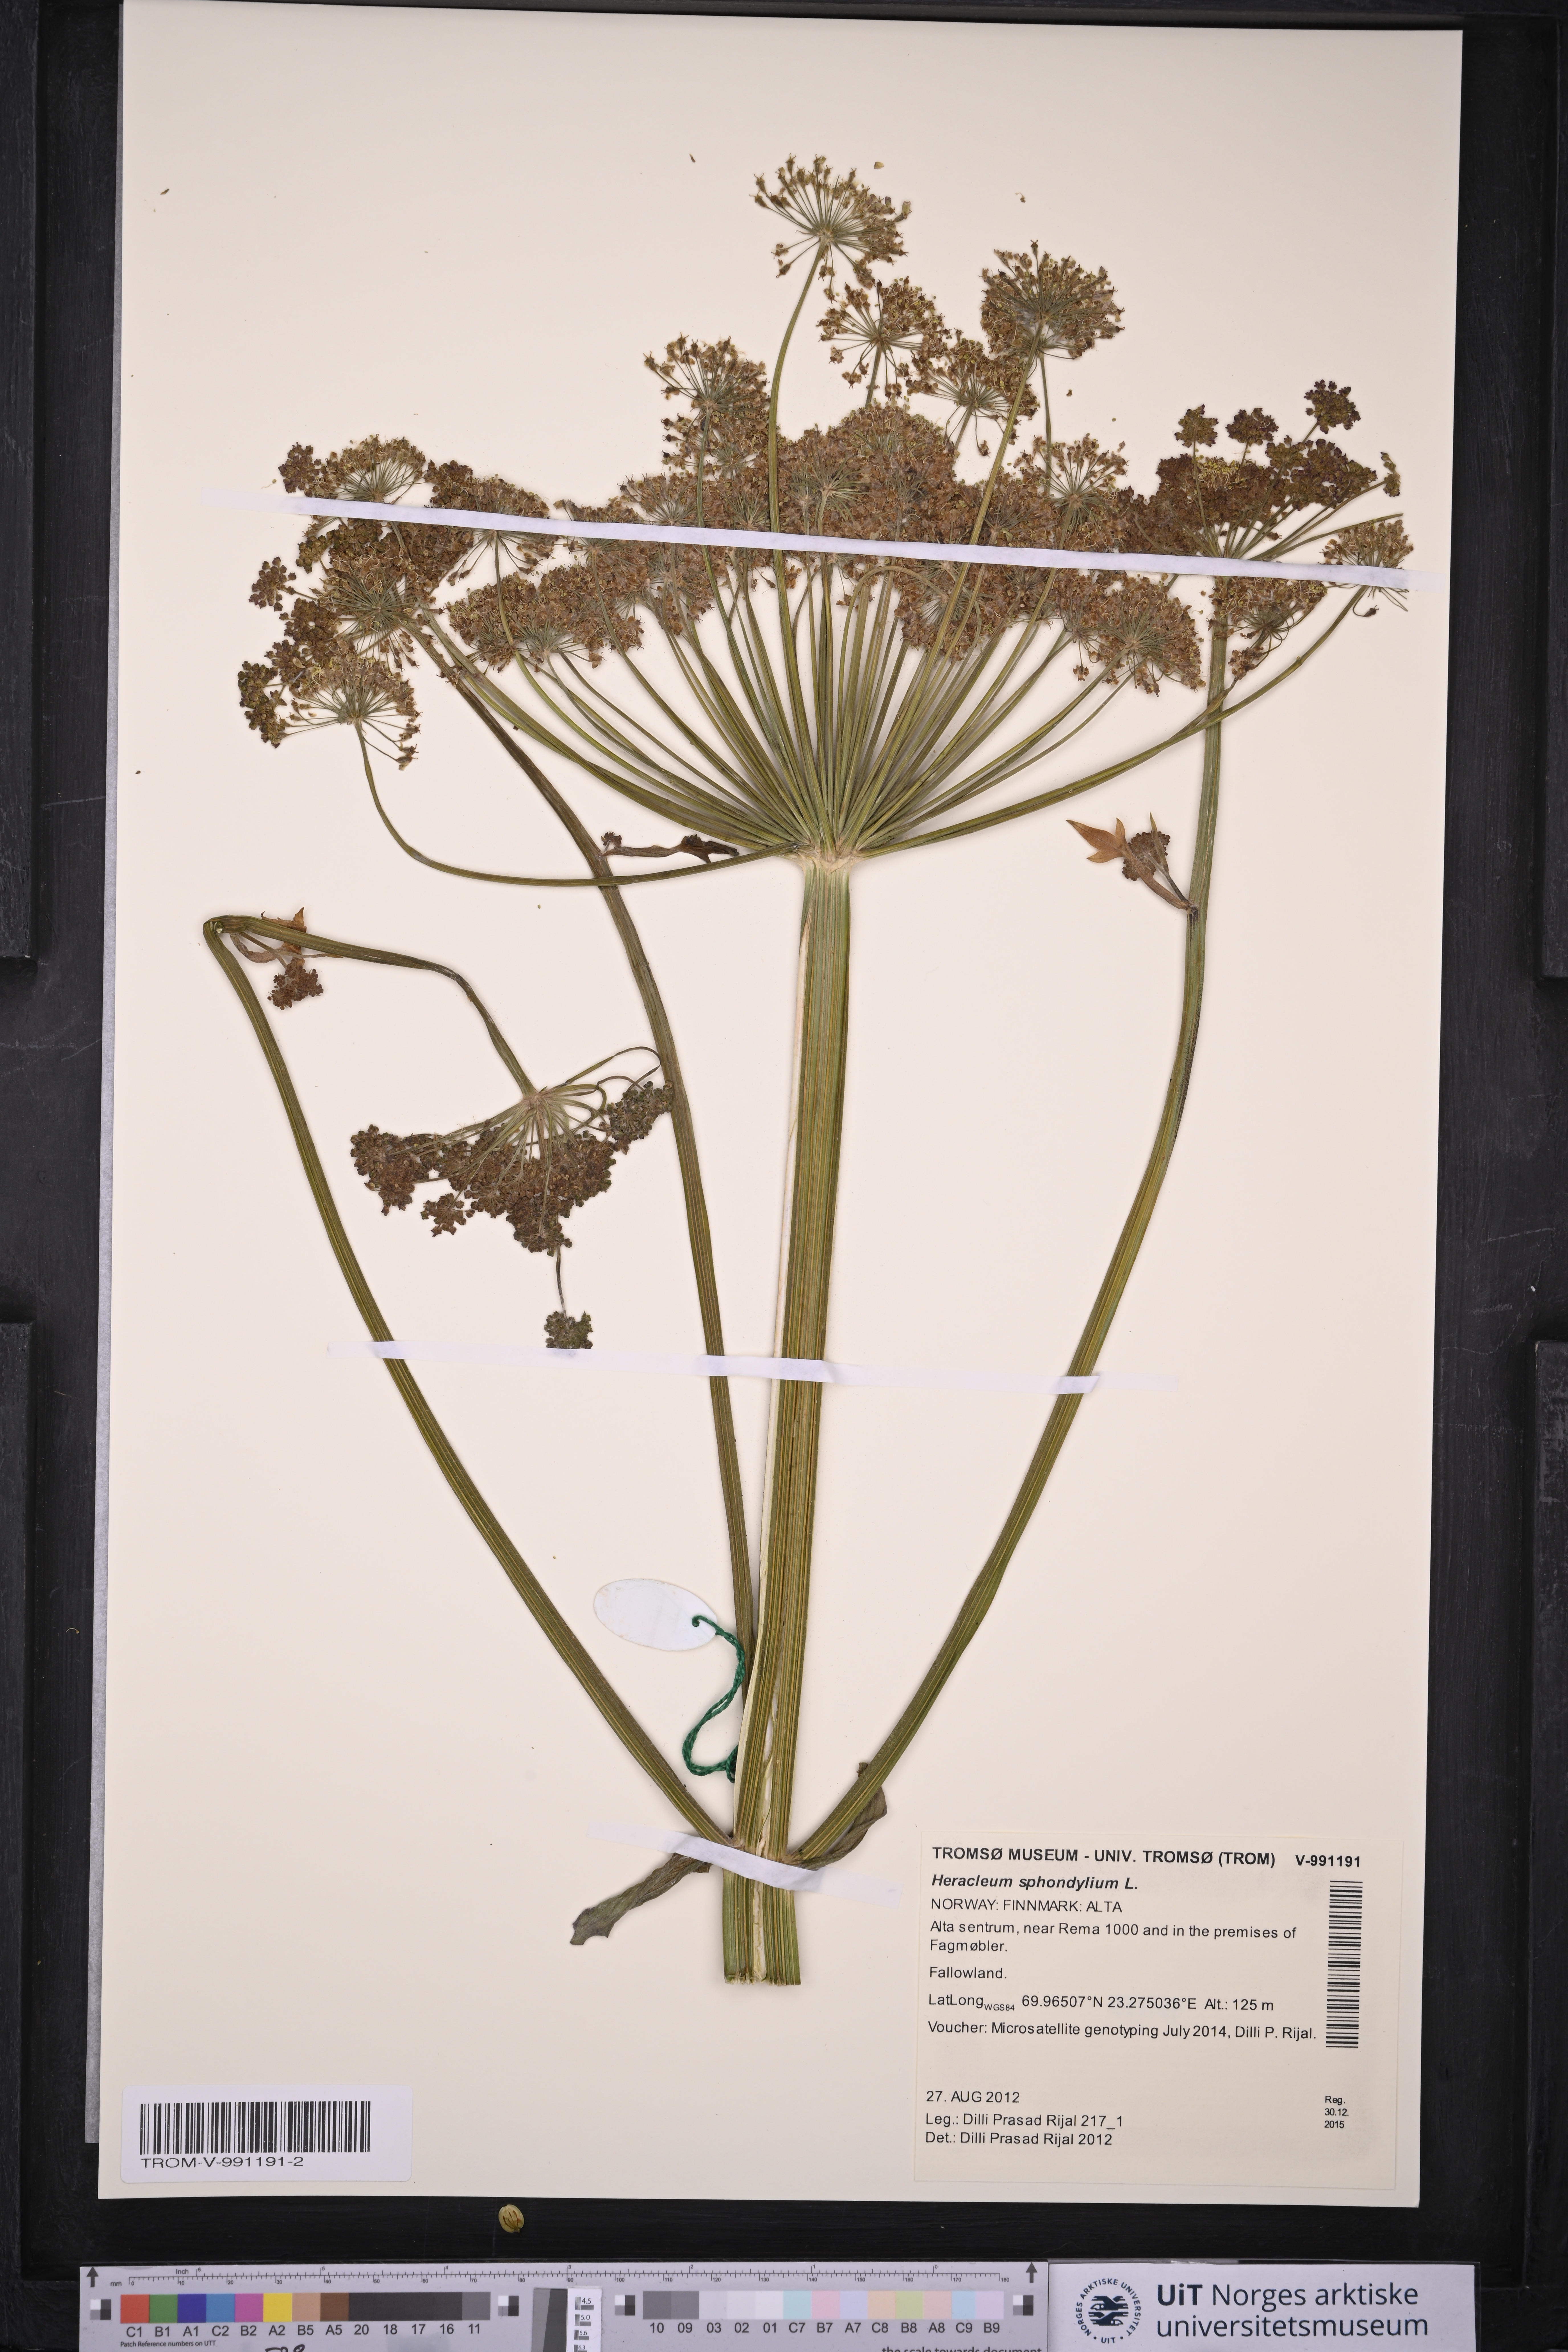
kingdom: Plantae
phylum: Tracheophyta
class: Magnoliopsida
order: Apiales
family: Apiaceae
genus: Heracleum
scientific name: Heracleum sphondylium
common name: Hogweed
